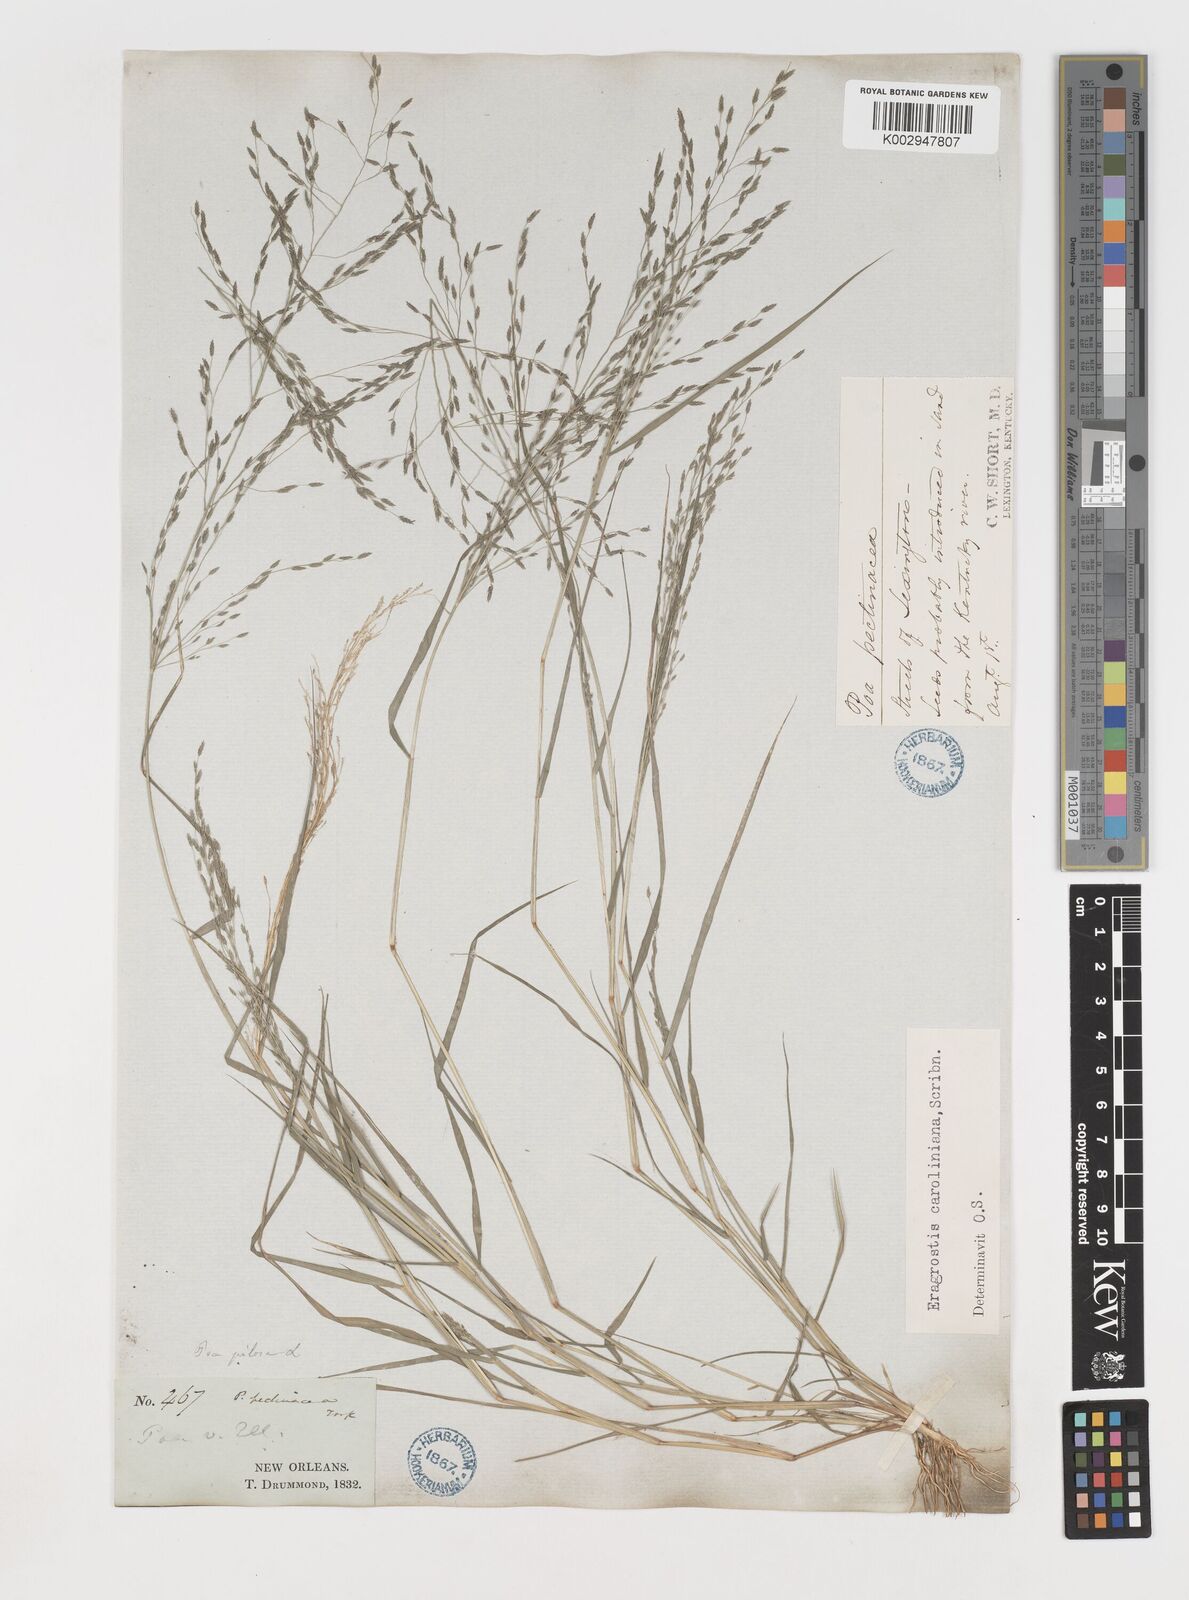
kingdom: Plantae
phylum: Tracheophyta
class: Liliopsida
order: Poales
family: Poaceae
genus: Eragrostis
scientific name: Eragrostis pectinacea
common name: Tufted lovegrass
